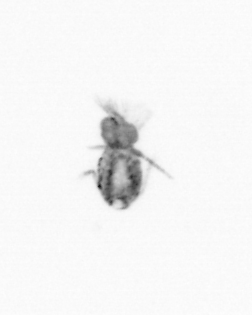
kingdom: Animalia
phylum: Arthropoda
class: Copepoda
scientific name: Copepoda
